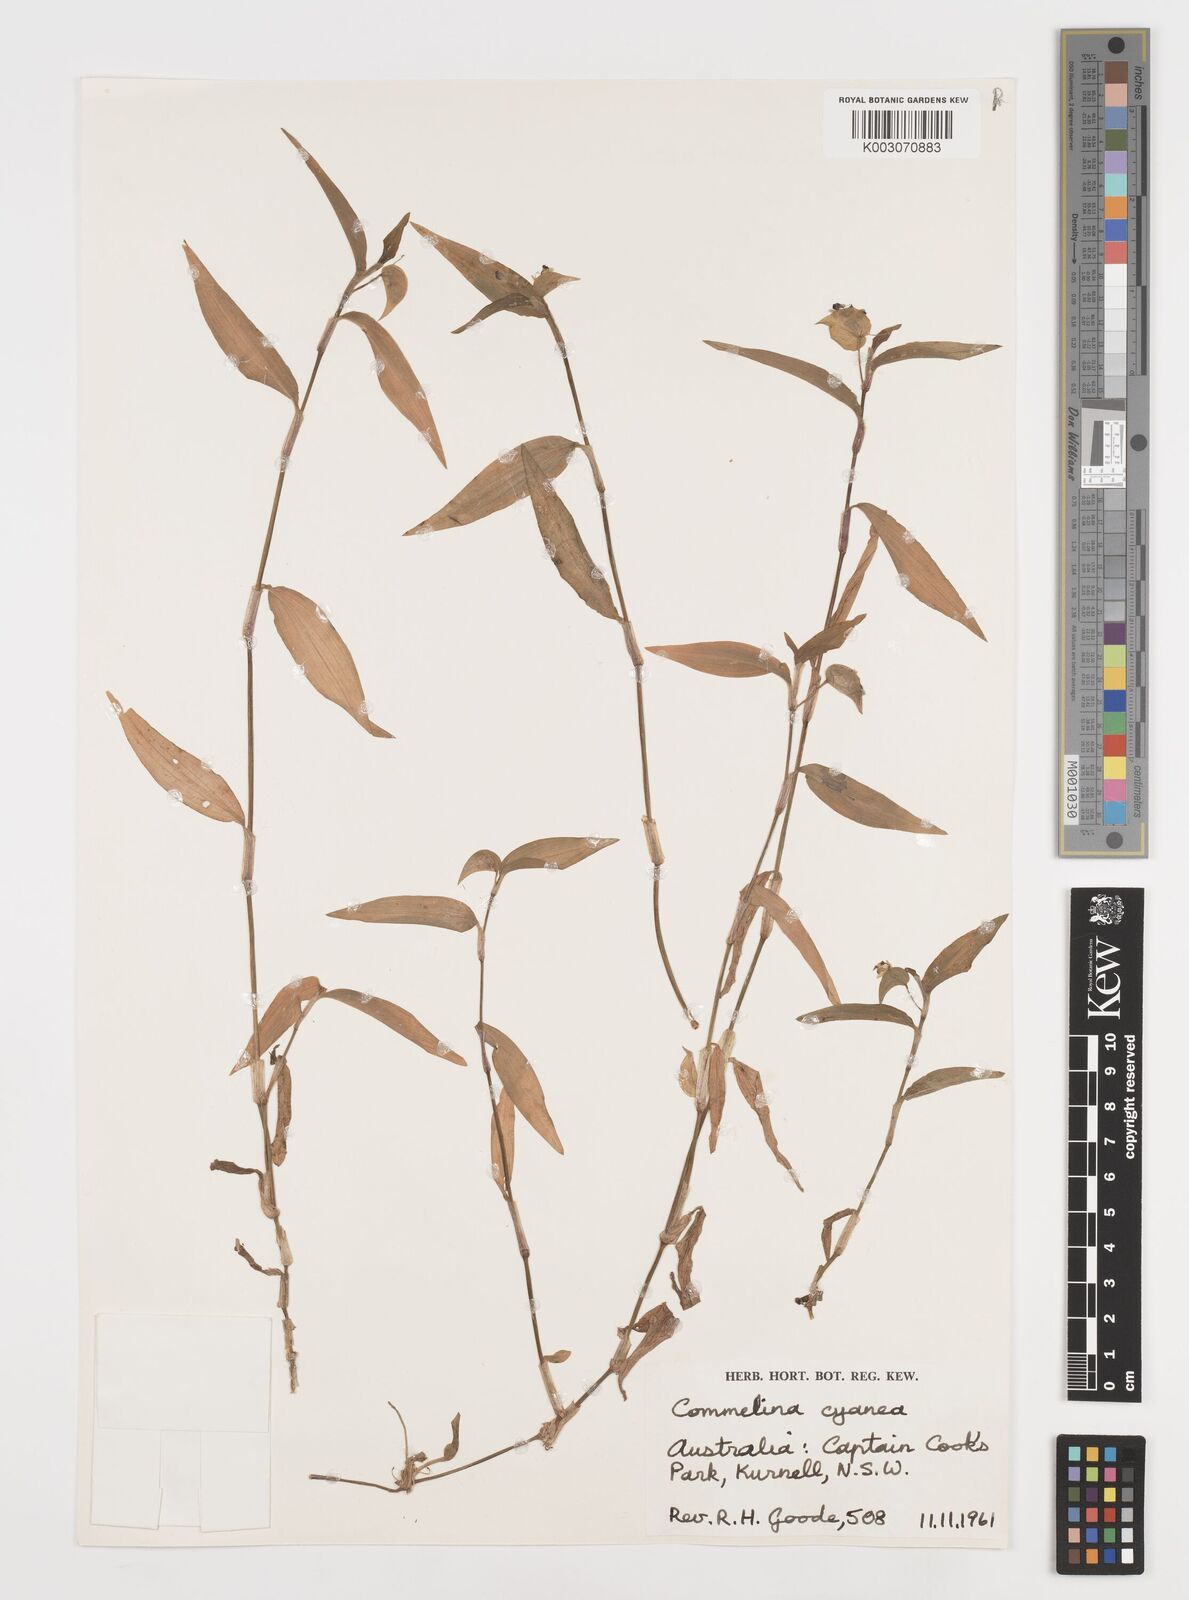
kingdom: Plantae
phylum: Tracheophyta
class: Liliopsida
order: Commelinales
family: Commelinaceae
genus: Commelina
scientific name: Commelina cyanea
